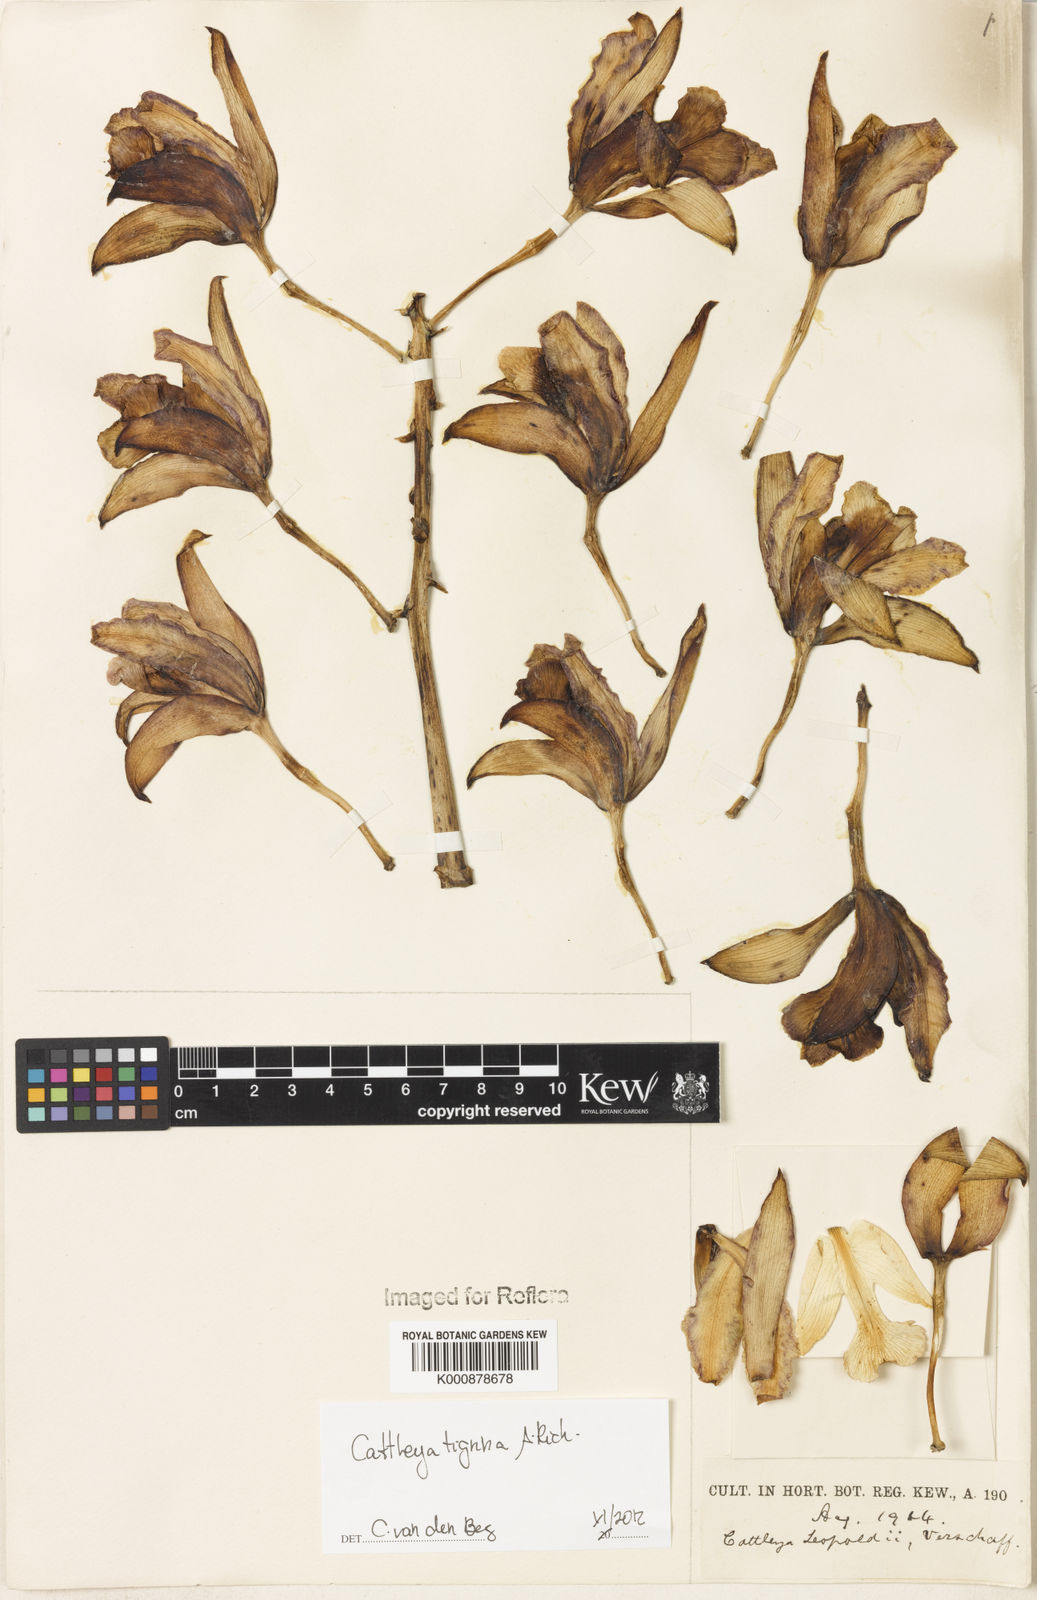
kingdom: Plantae
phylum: Tracheophyta
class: Liliopsida
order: Asparagales
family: Orchidaceae
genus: Cattleya
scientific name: Cattleya tigrina
